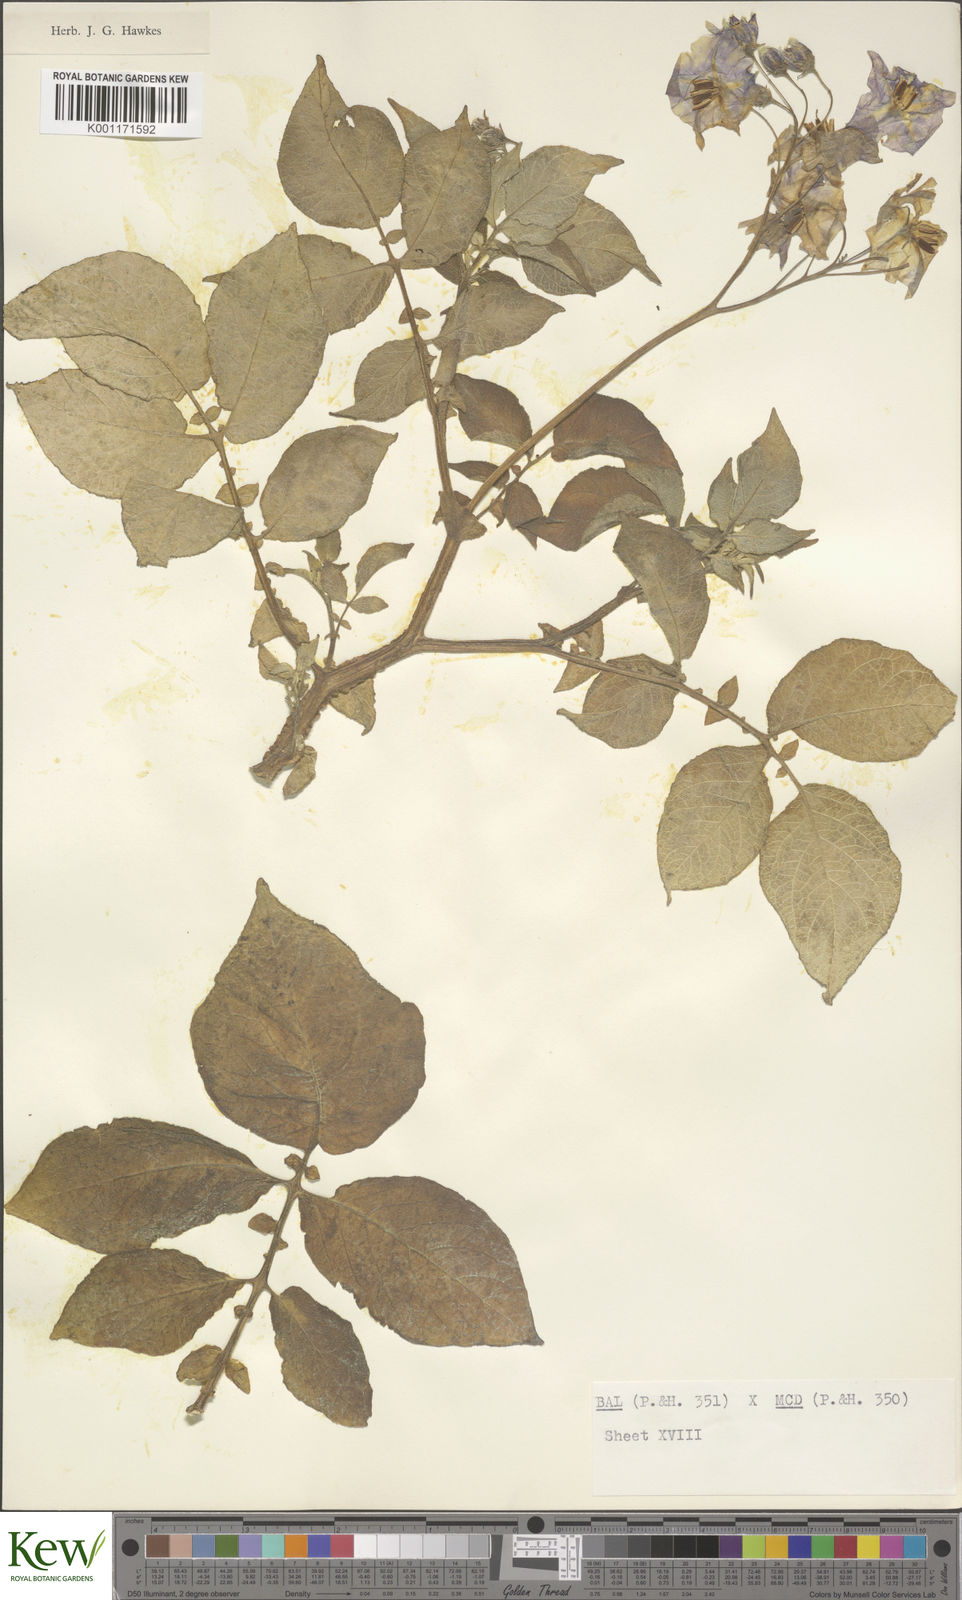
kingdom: Plantae
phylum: Tracheophyta
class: Magnoliopsida
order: Solanales
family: Solanaceae
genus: Solanum
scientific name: Solanum vernei
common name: Purple potato
